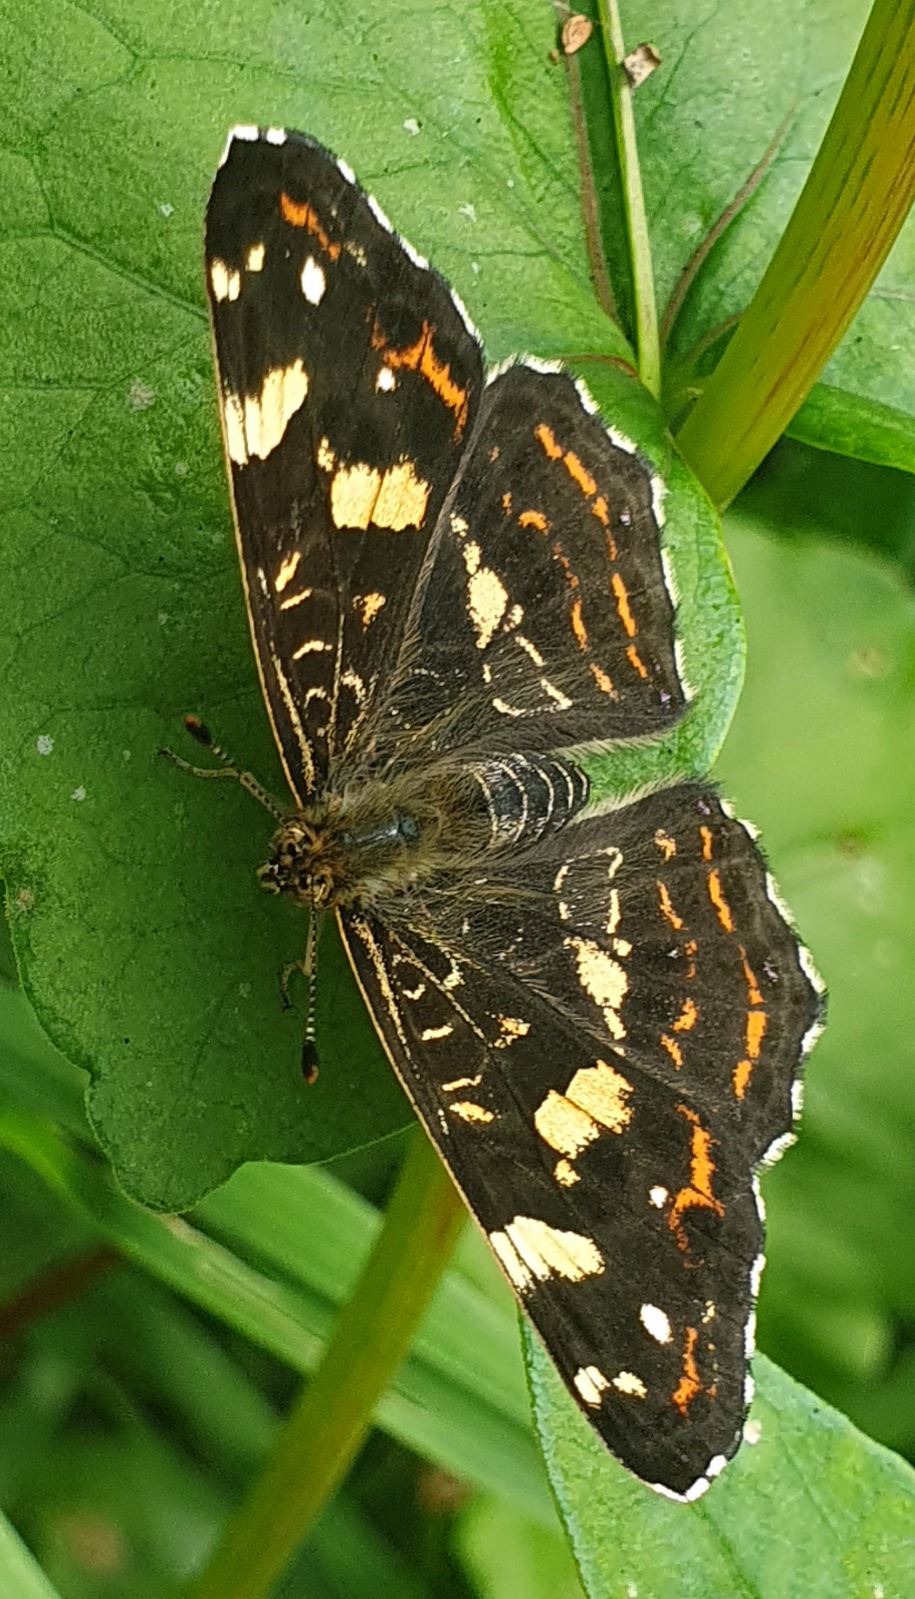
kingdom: Animalia
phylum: Arthropoda
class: Insecta
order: Lepidoptera
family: Nymphalidae
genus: Araschnia
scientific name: Araschnia levana
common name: Nældesommerfugl
